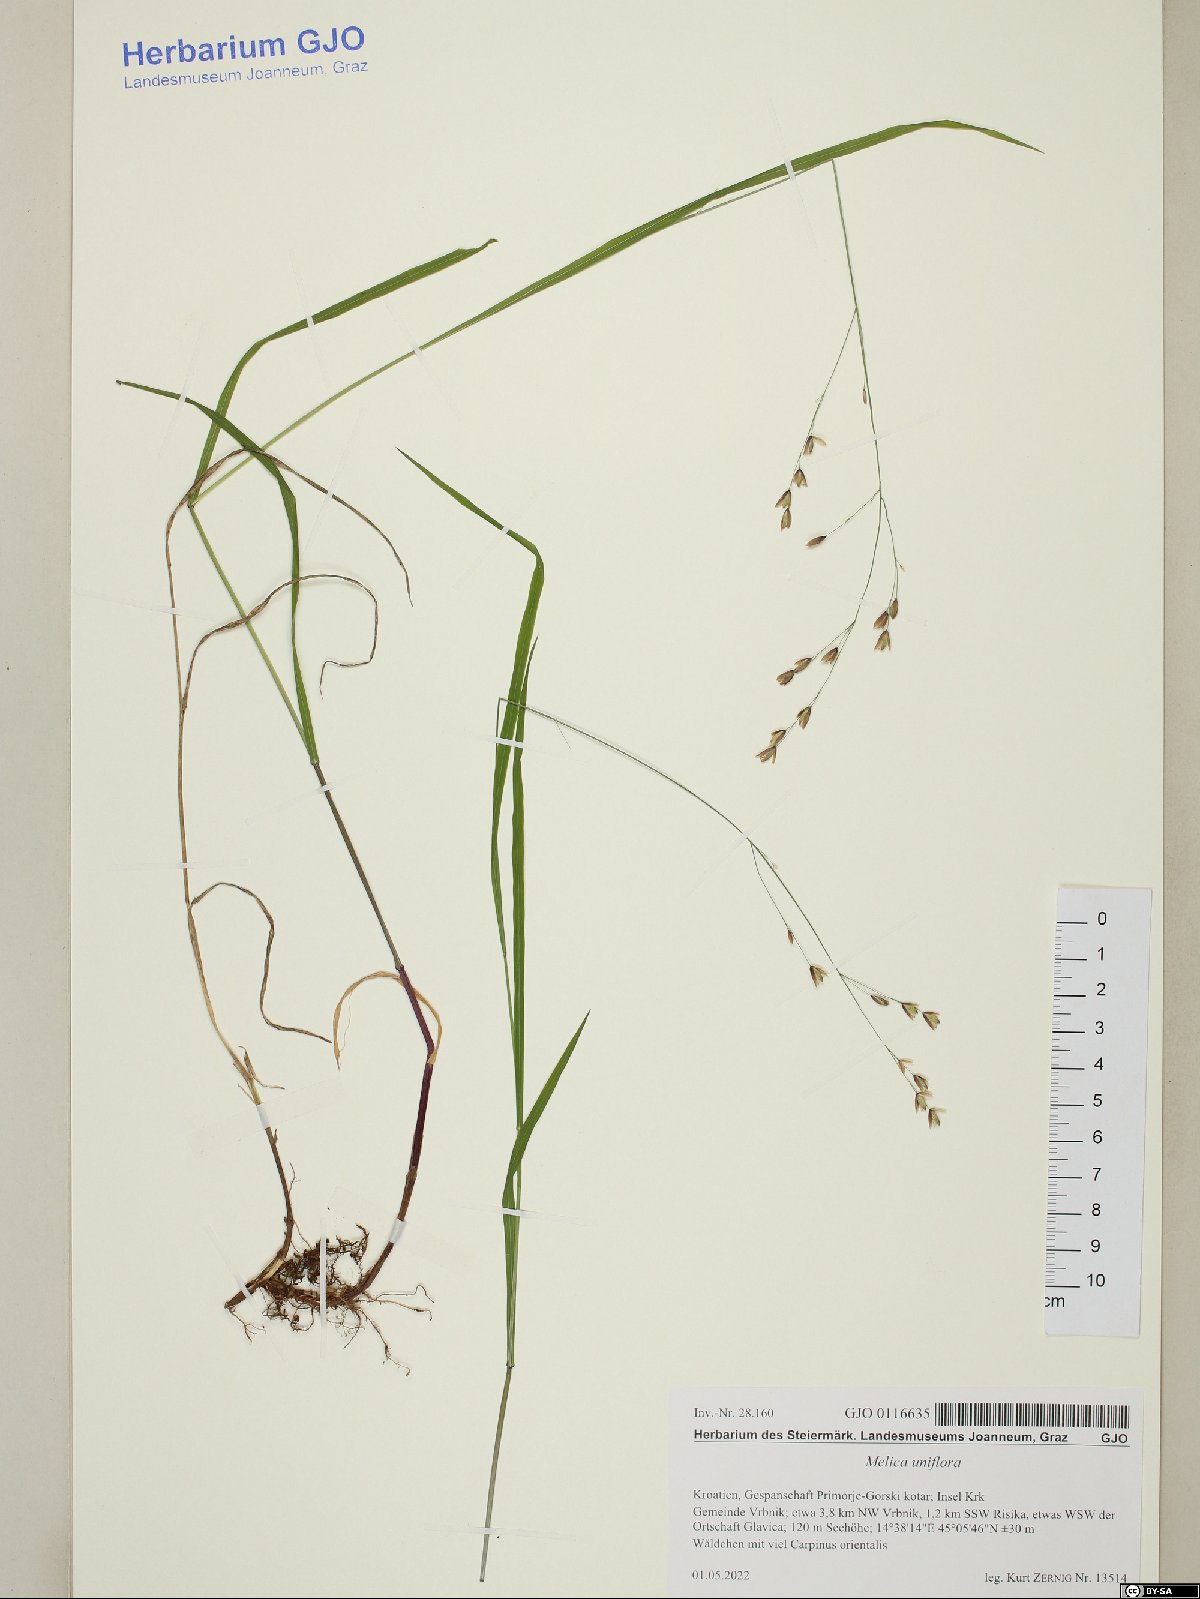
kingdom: Plantae
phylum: Tracheophyta
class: Liliopsida
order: Poales
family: Poaceae
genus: Melica
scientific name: Melica uniflora
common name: Wood melick
